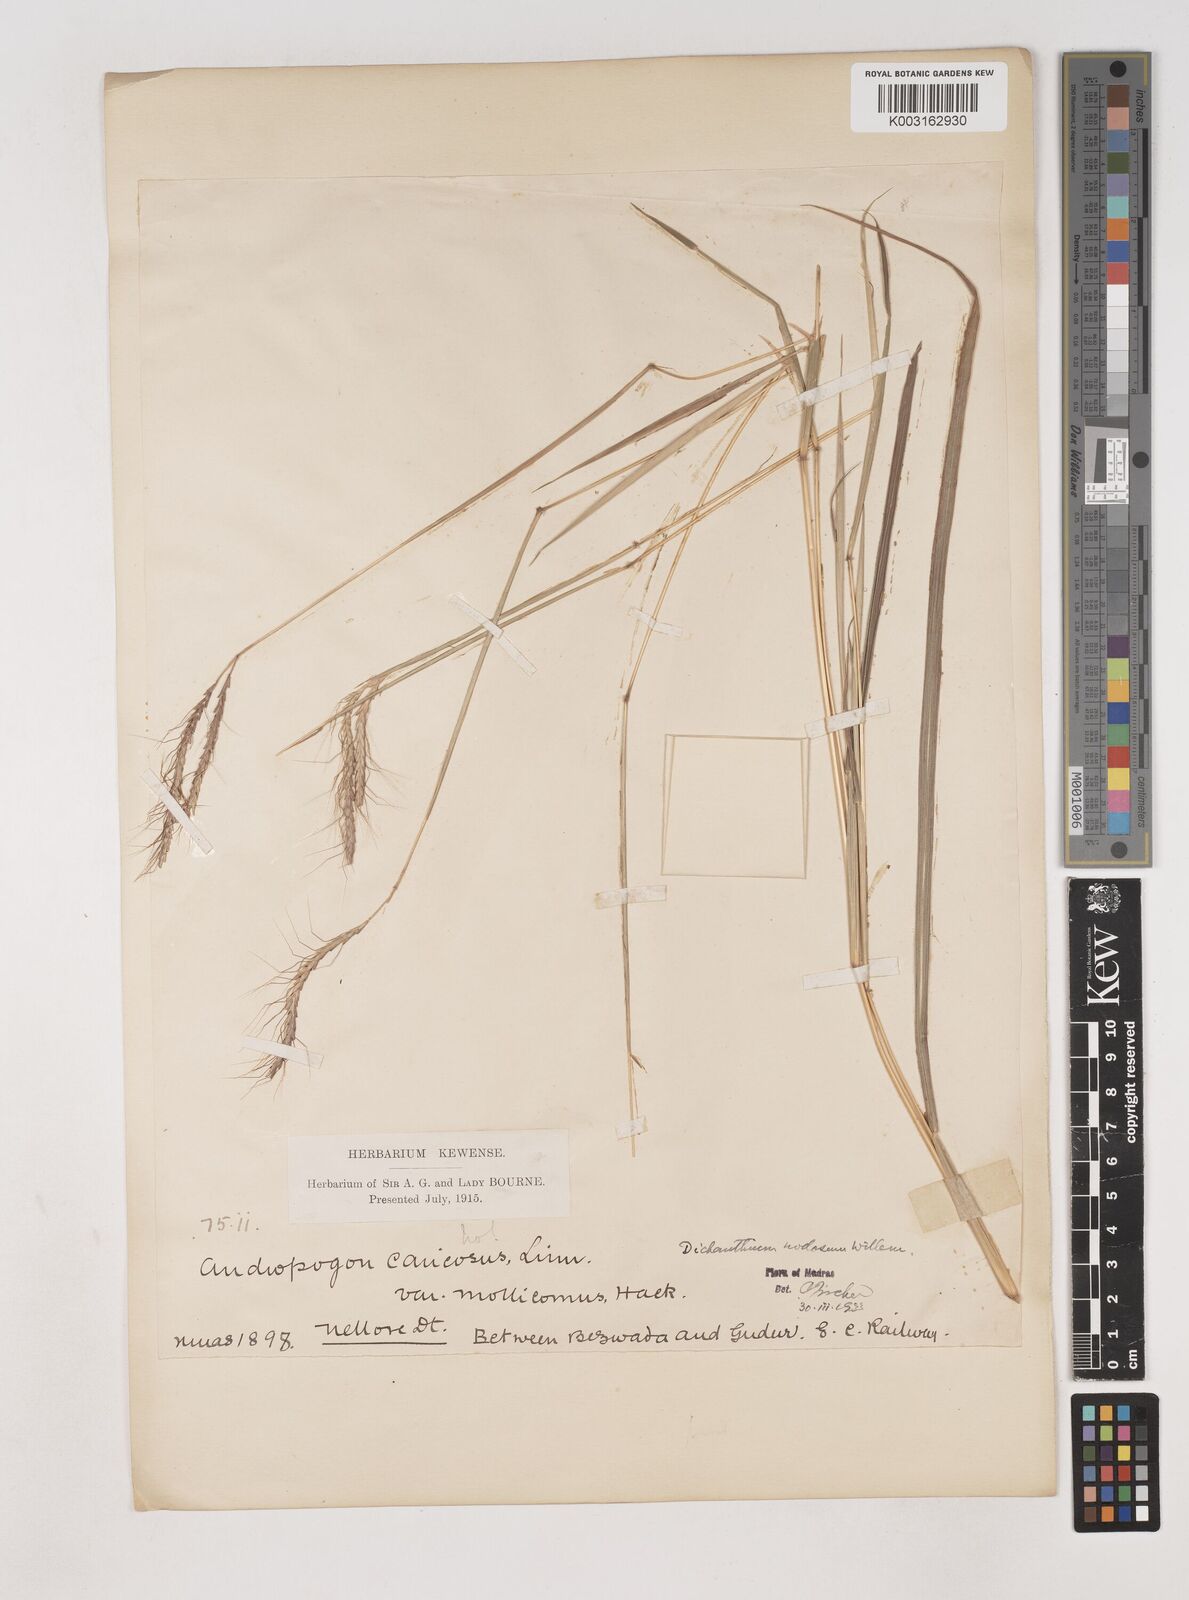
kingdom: Plantae
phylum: Tracheophyta
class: Liliopsida
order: Poales
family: Poaceae
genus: Dichanthium
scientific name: Dichanthium aristatum
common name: Angleton bluestem
